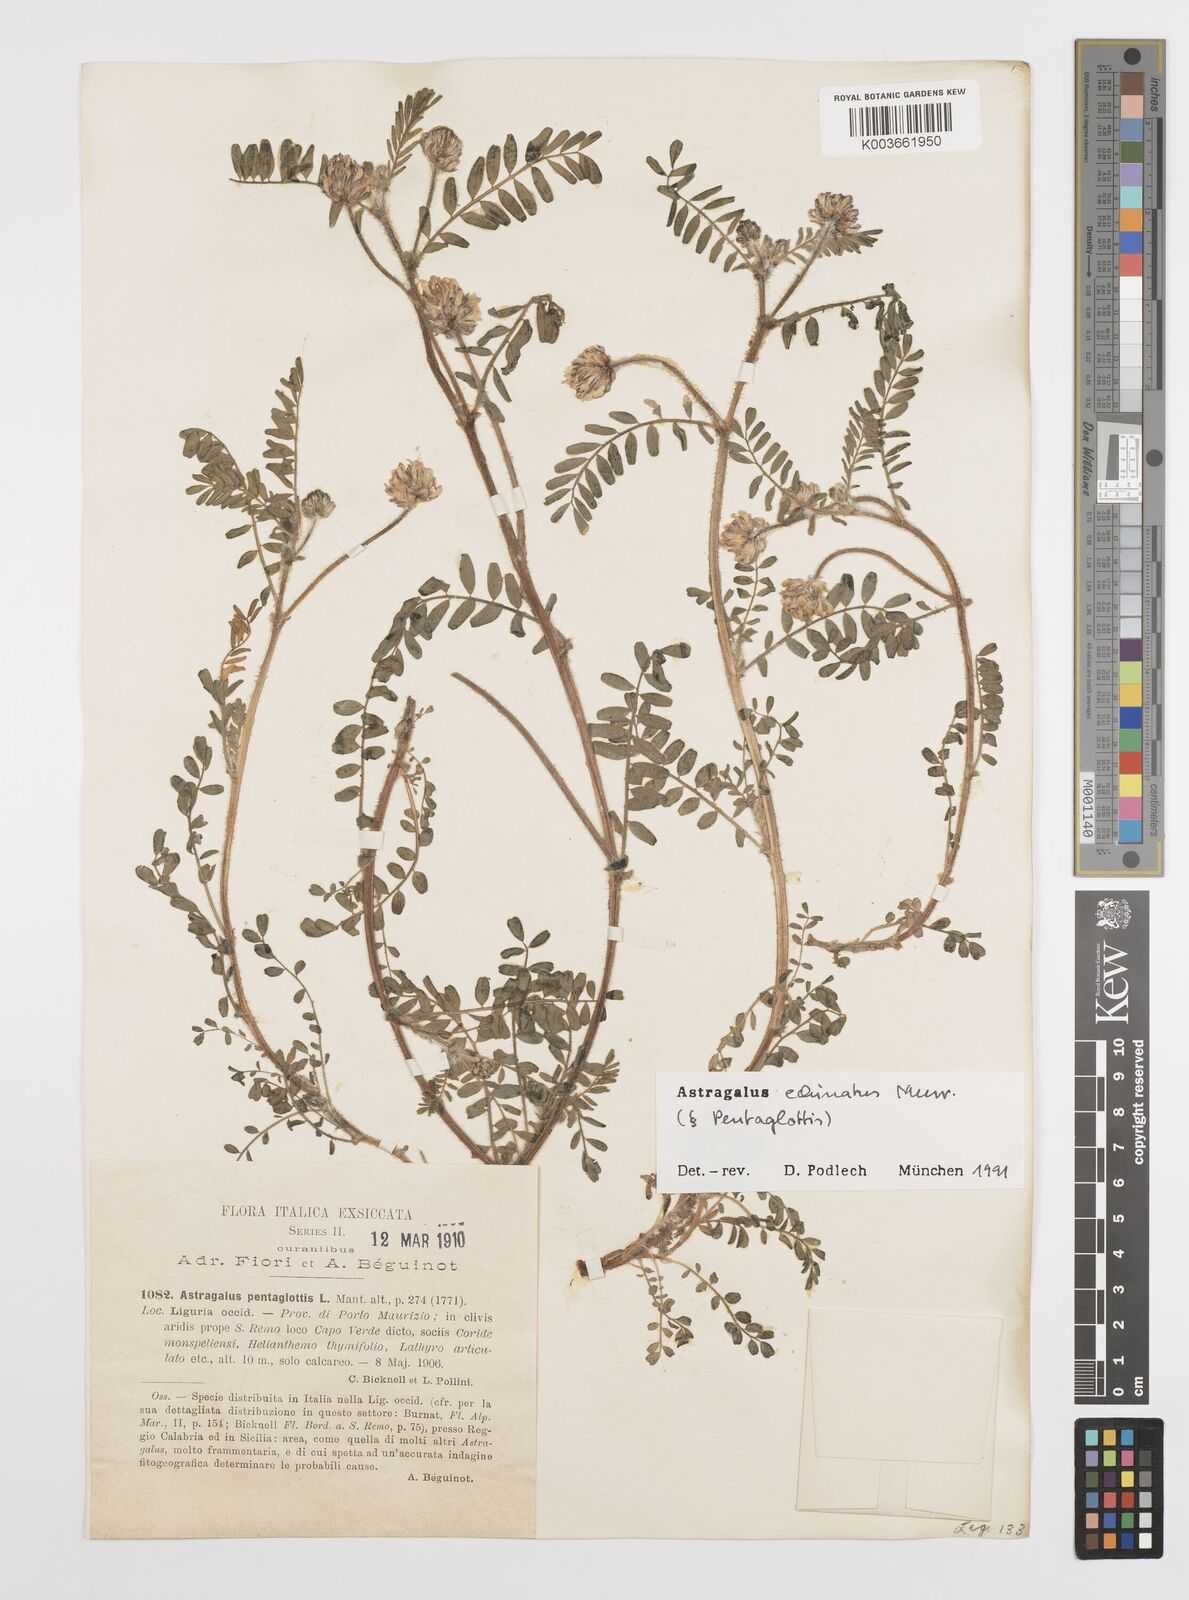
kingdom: Plantae
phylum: Tracheophyta
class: Magnoliopsida
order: Fabales
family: Fabaceae
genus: Astragalus
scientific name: Astragalus echinatus
